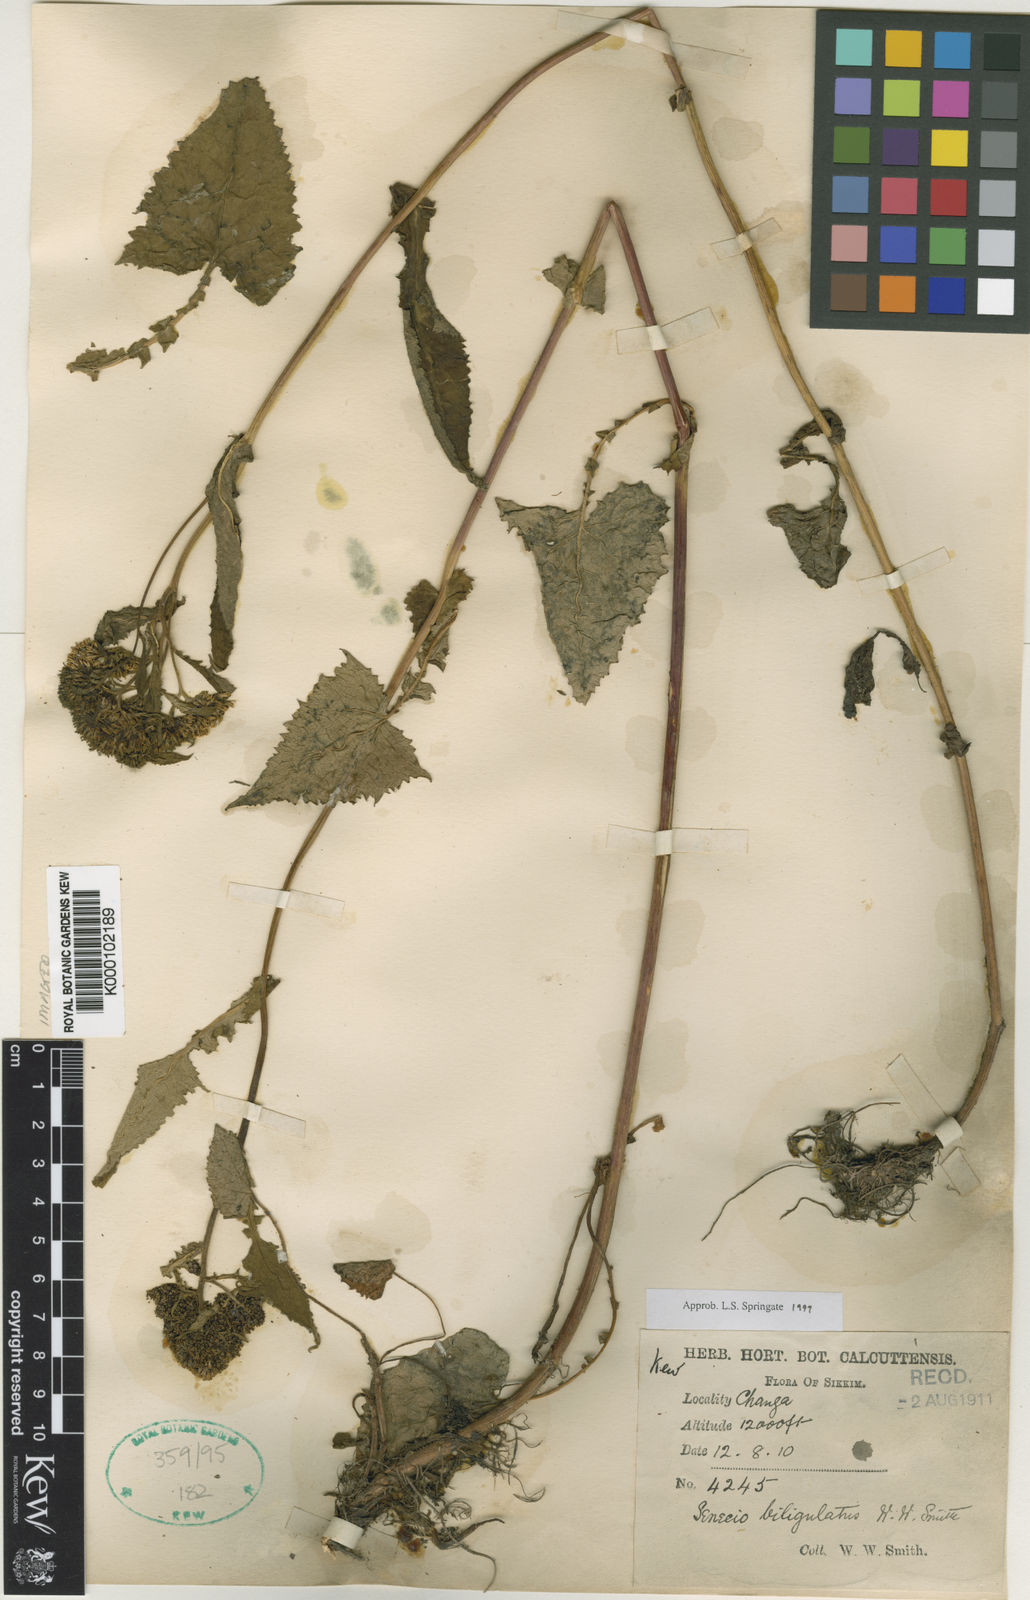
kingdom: Plantae
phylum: Tracheophyta
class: Magnoliopsida
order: Asterales
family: Asteraceae
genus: Senecio
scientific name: Senecio biligulatus
